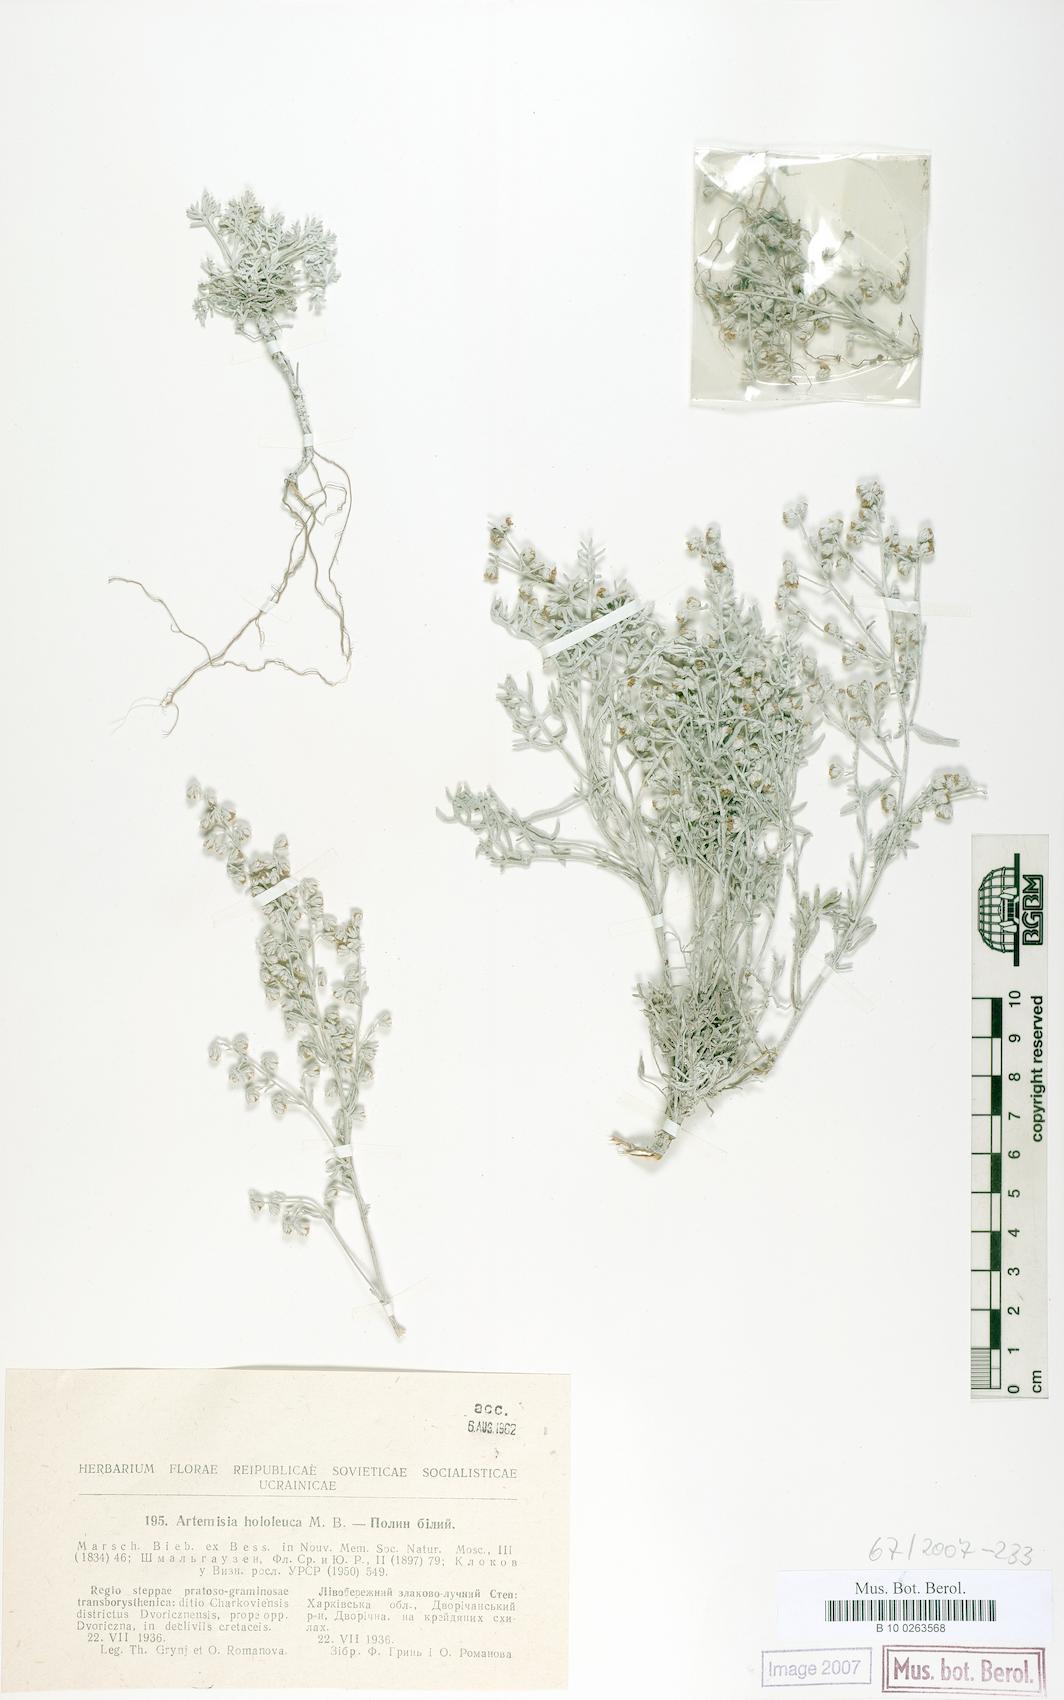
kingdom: Plantae
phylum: Tracheophyta
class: Magnoliopsida
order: Asterales
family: Asteraceae
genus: Artemisia
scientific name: Artemisia hololeuca
